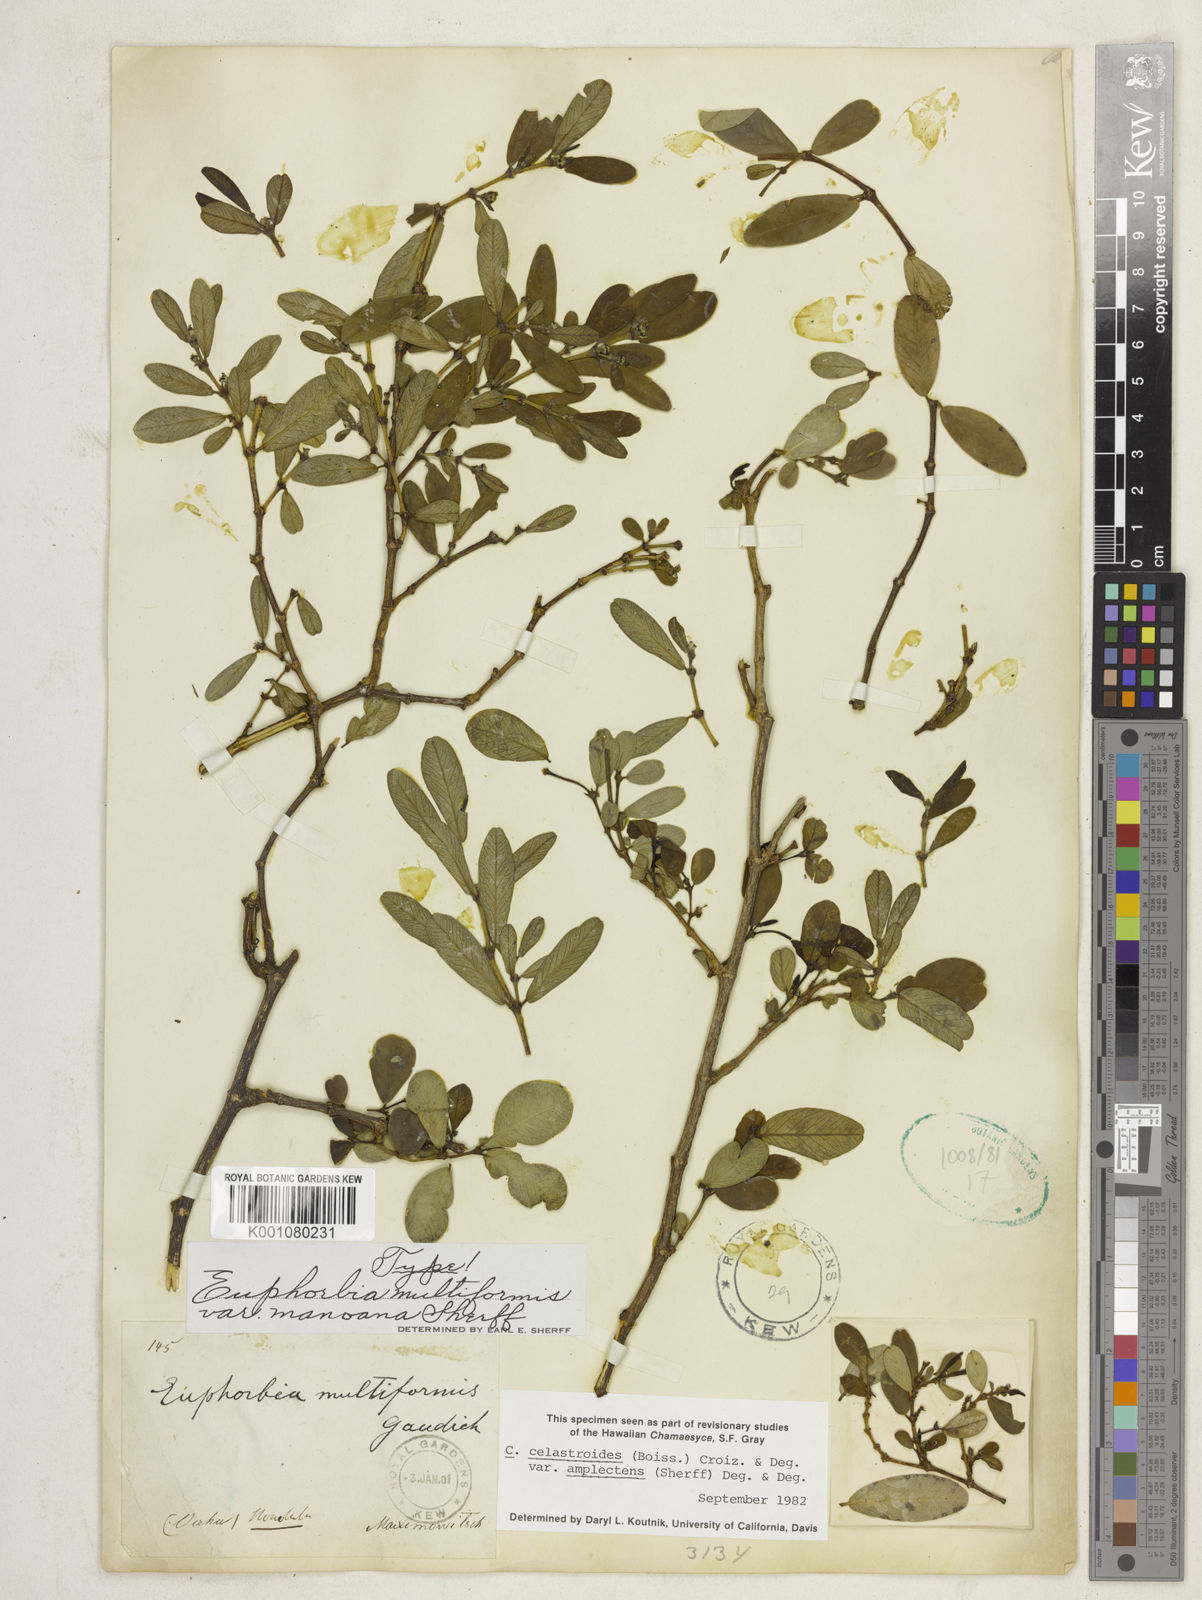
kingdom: Plantae
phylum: Tracheophyta
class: Magnoliopsida
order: Malpighiales
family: Euphorbiaceae
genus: Euphorbia
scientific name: Euphorbia multiformis
